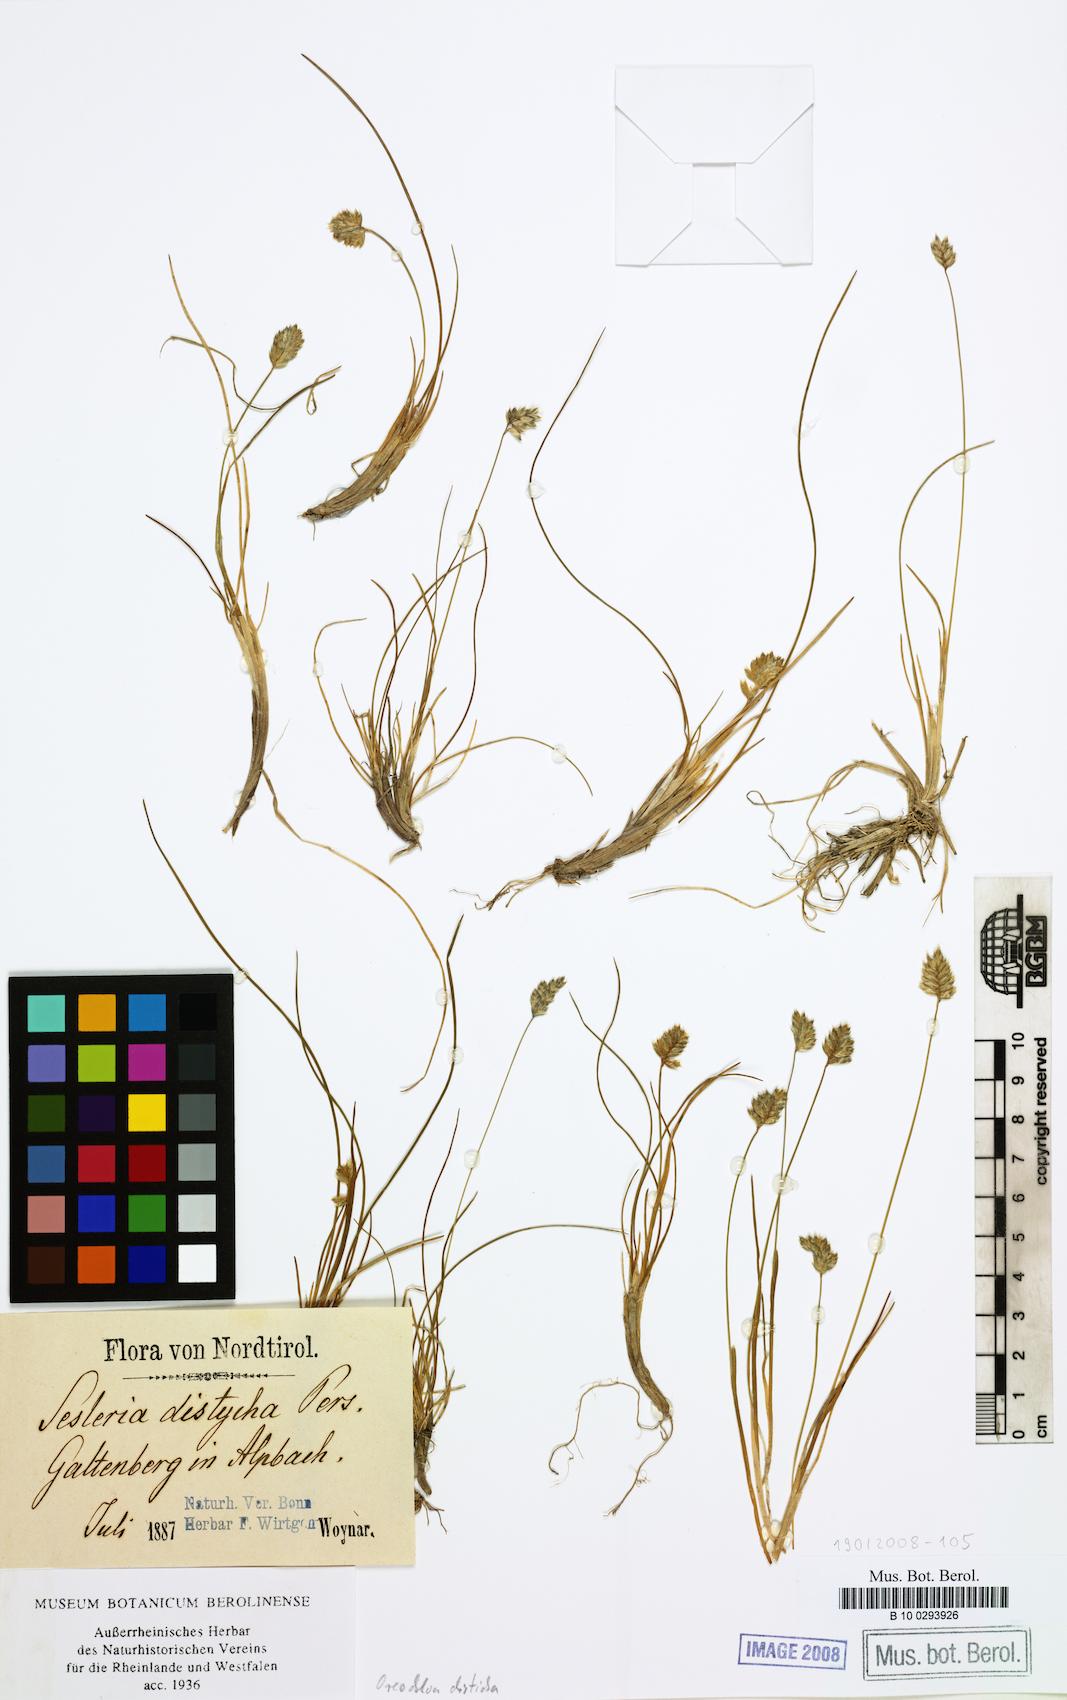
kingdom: Plantae
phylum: Tracheophyta
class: Liliopsida
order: Poales
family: Poaceae
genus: Oreochloa
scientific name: Oreochloa disticha
